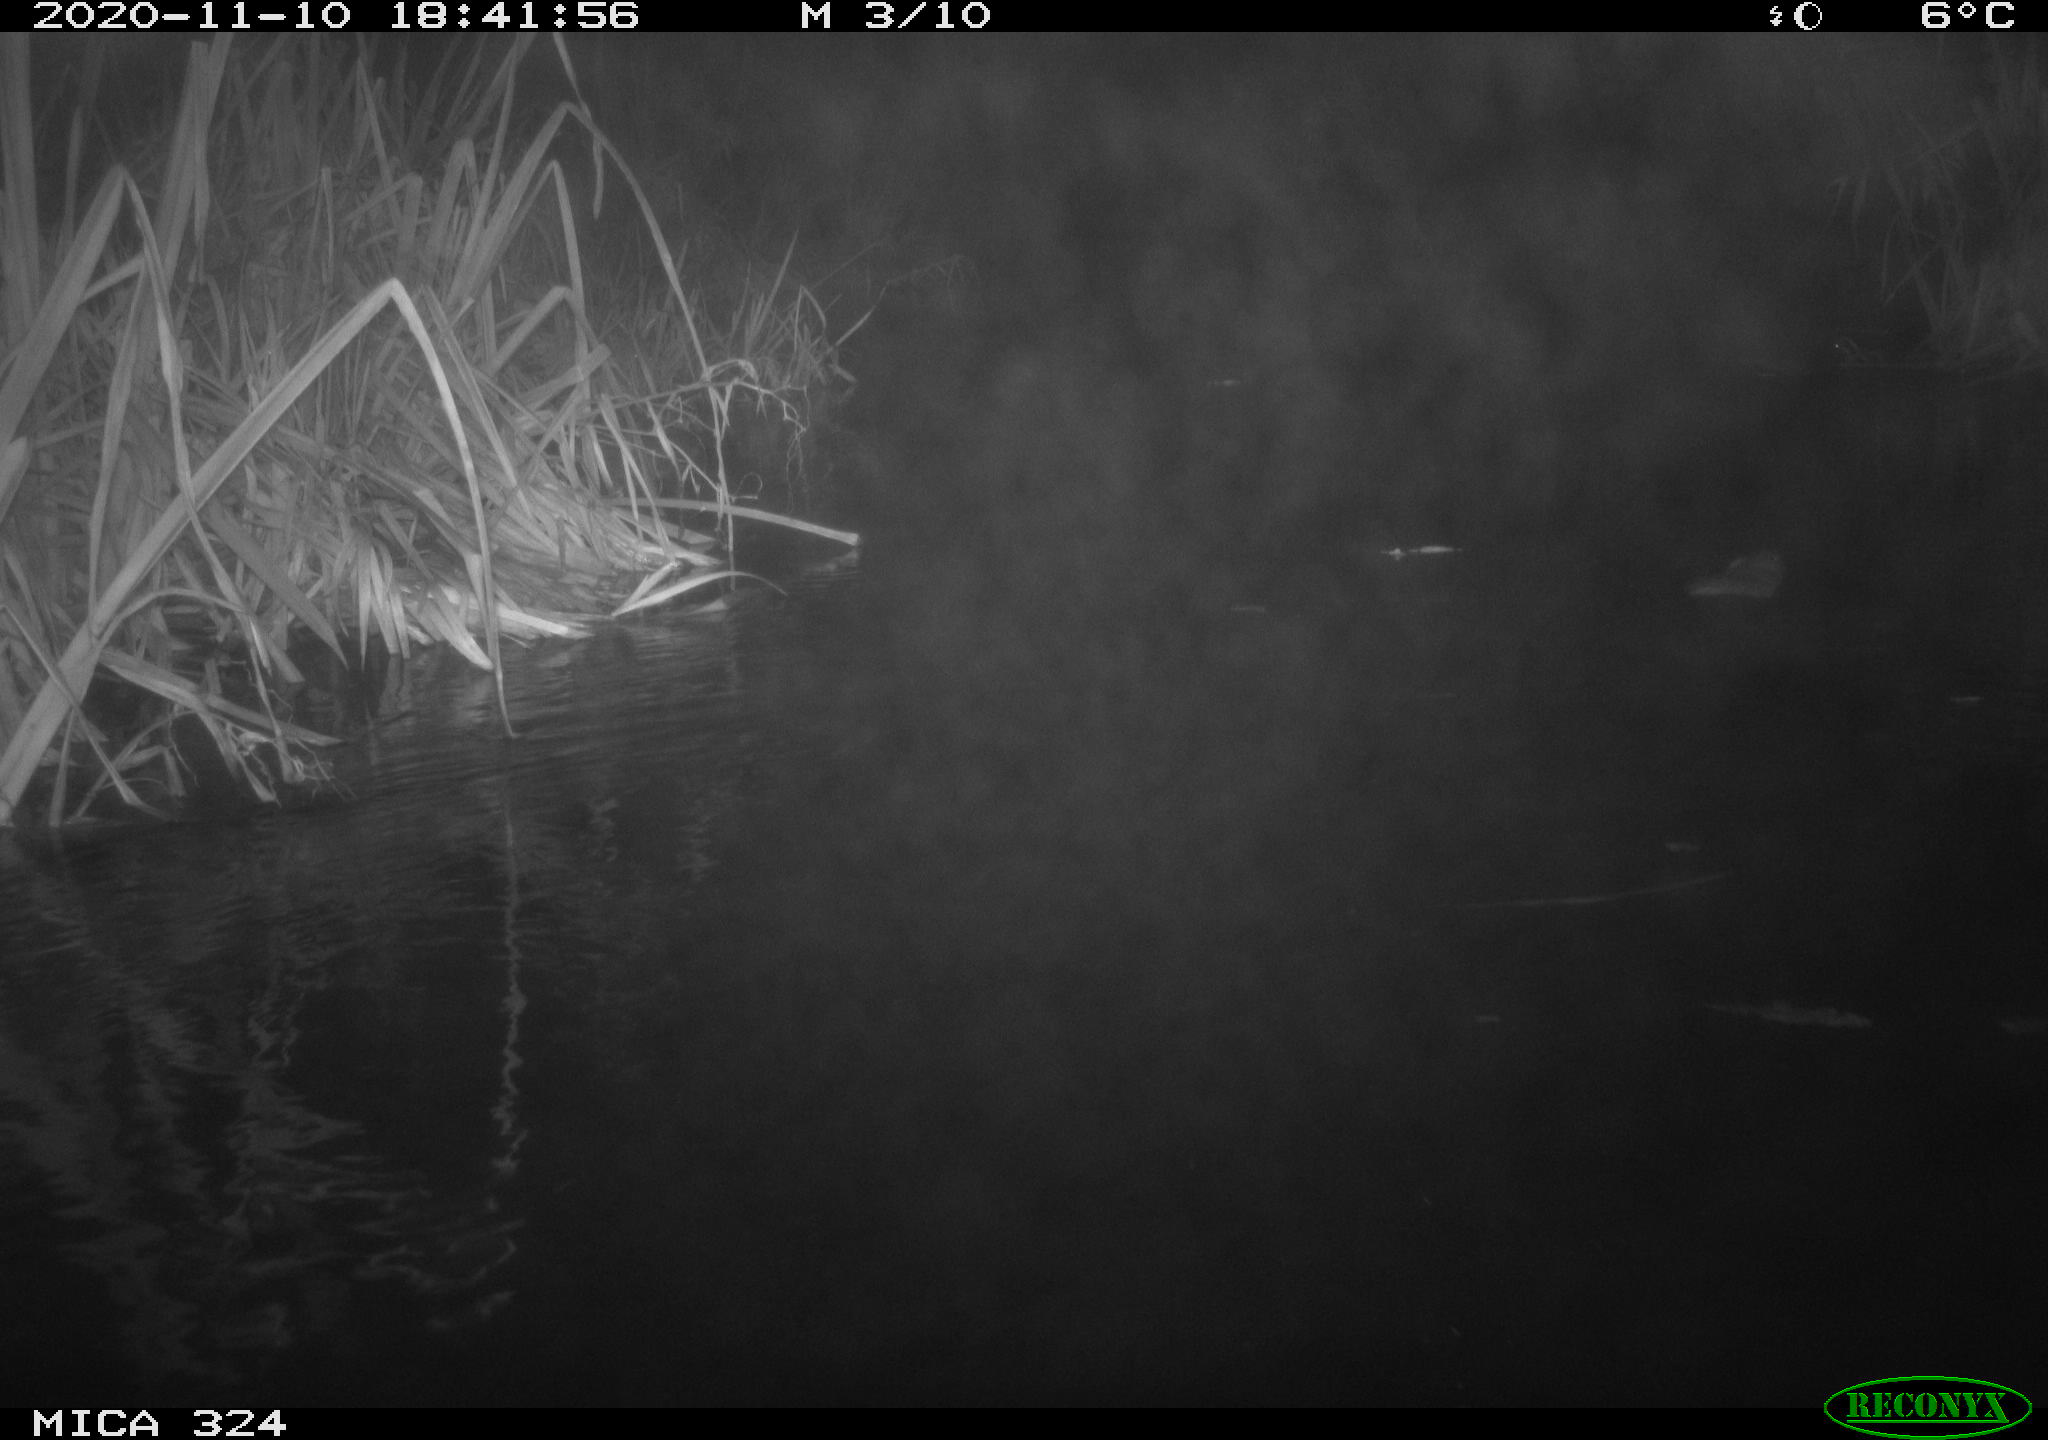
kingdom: Animalia
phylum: Chordata
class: Mammalia
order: Rodentia
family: Cricetidae
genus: Ondatra
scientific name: Ondatra zibethicus
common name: Muskrat
